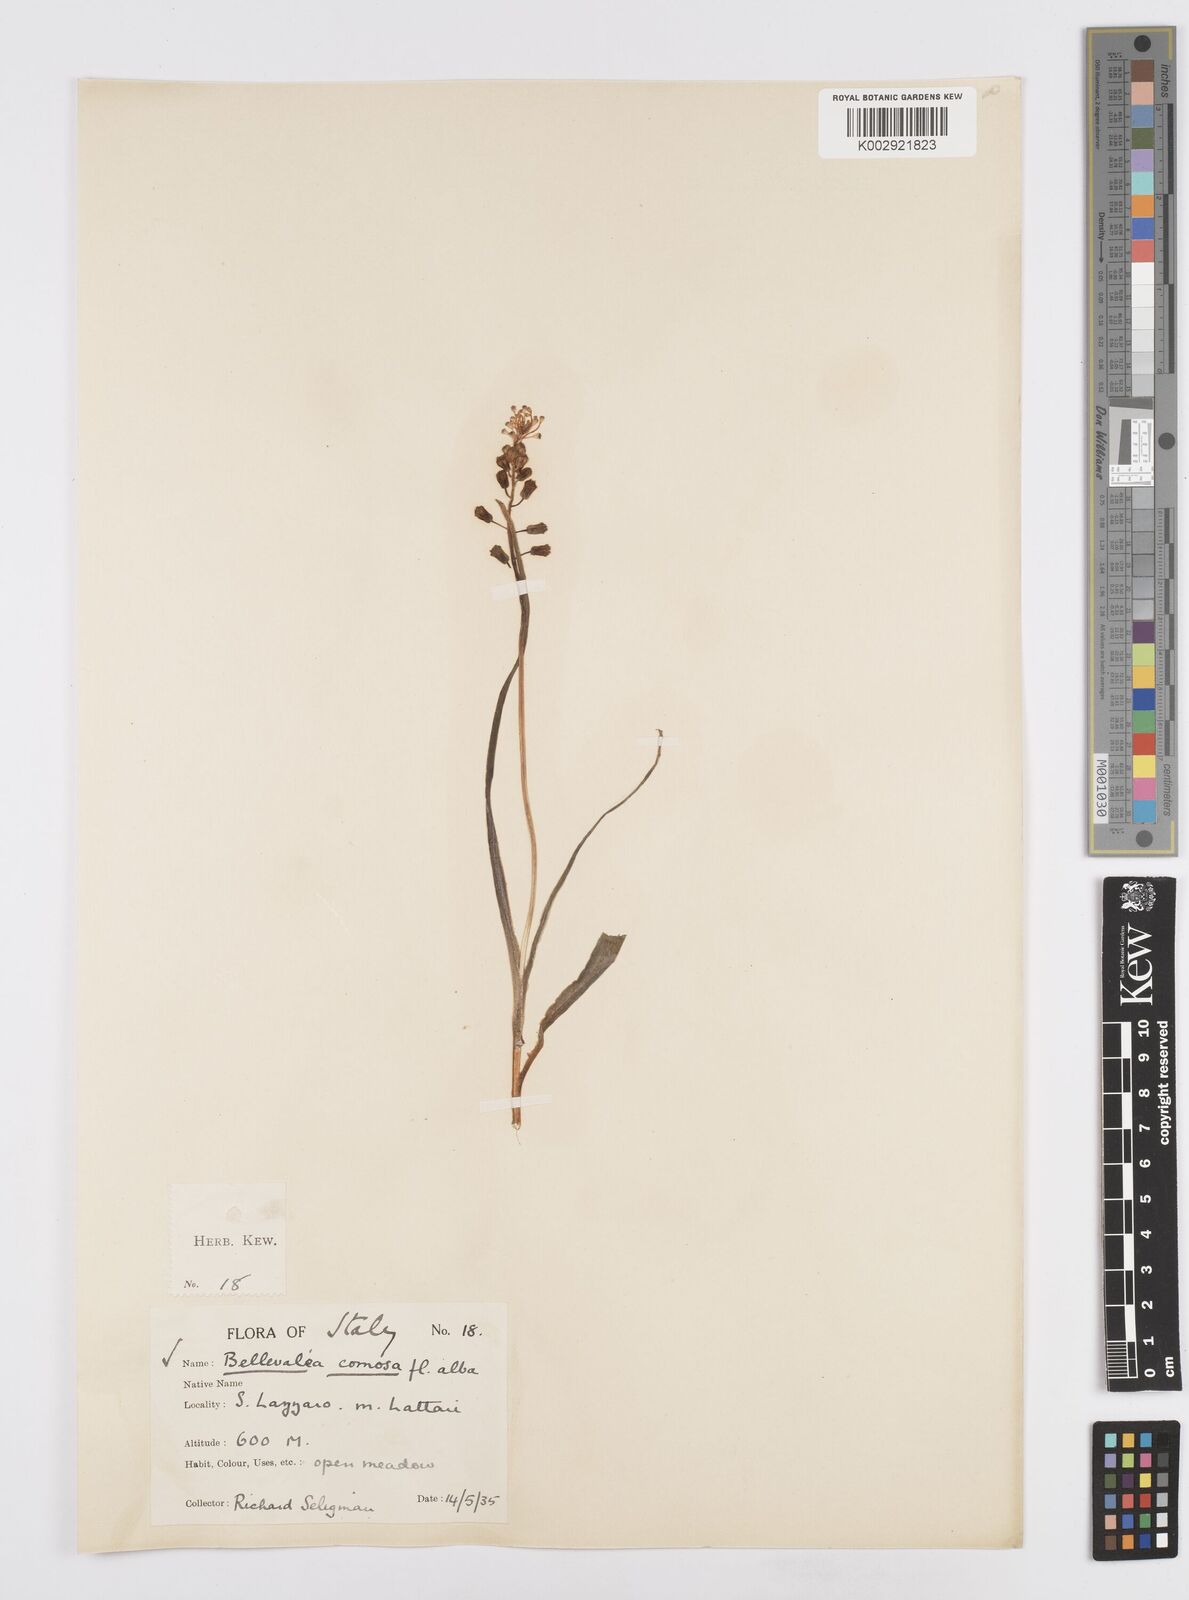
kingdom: Plantae
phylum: Tracheophyta
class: Liliopsida
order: Asparagales
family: Asparagaceae
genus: Muscari
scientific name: Muscari comosum
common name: Tassel hyacinth
